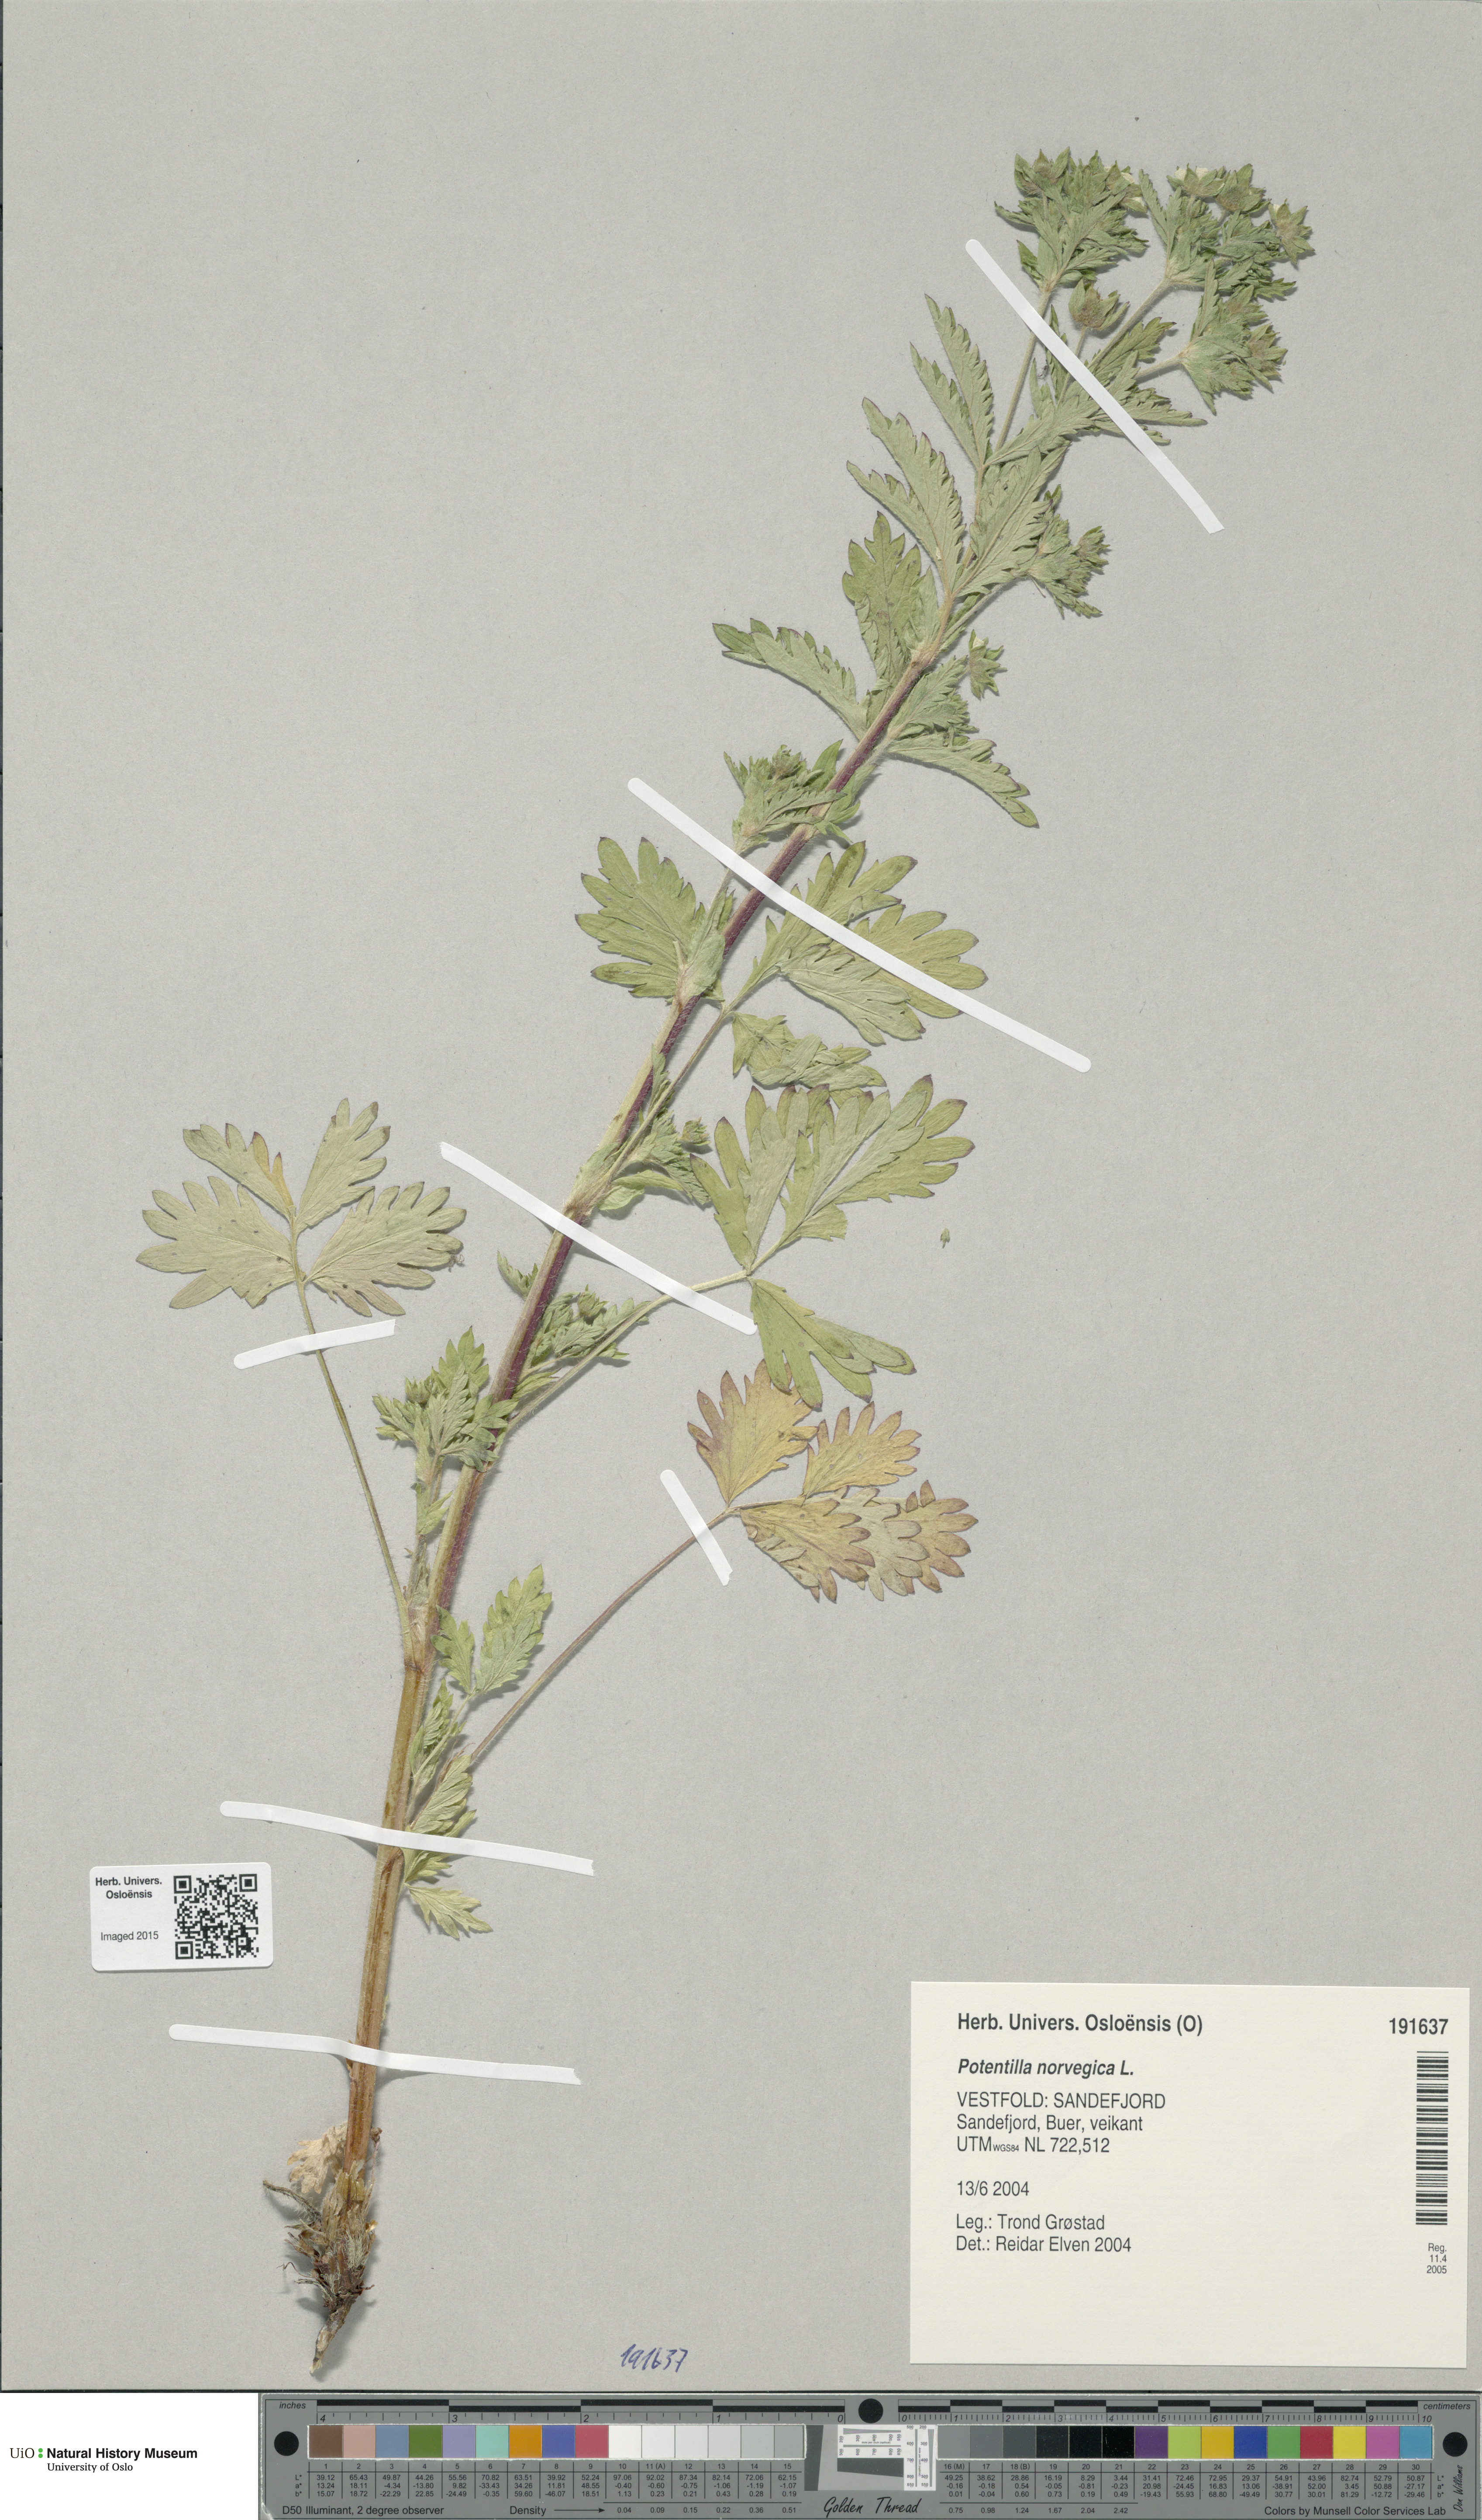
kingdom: Plantae
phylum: Tracheophyta
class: Magnoliopsida
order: Rosales
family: Rosaceae
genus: Potentilla
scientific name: Potentilla norvegica
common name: Ternate-leaved cinquefoil
